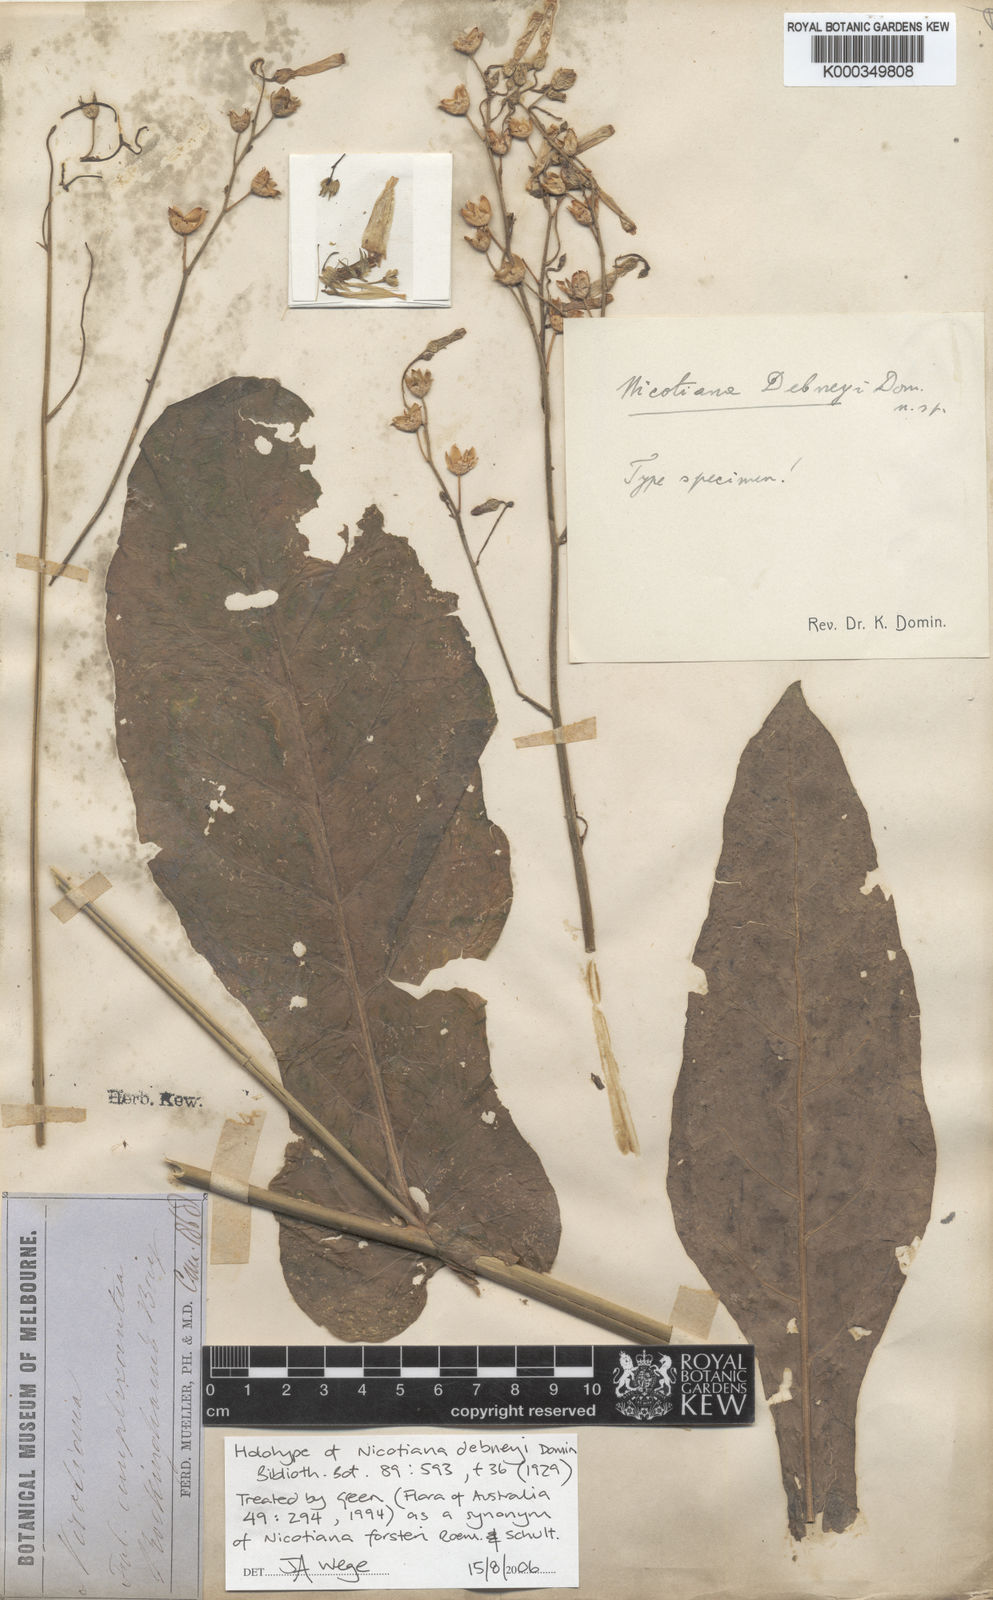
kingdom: Plantae
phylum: Tracheophyta
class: Magnoliopsida
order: Solanales
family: Solanaceae
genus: Nicotiana
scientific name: Nicotiana forsteri
